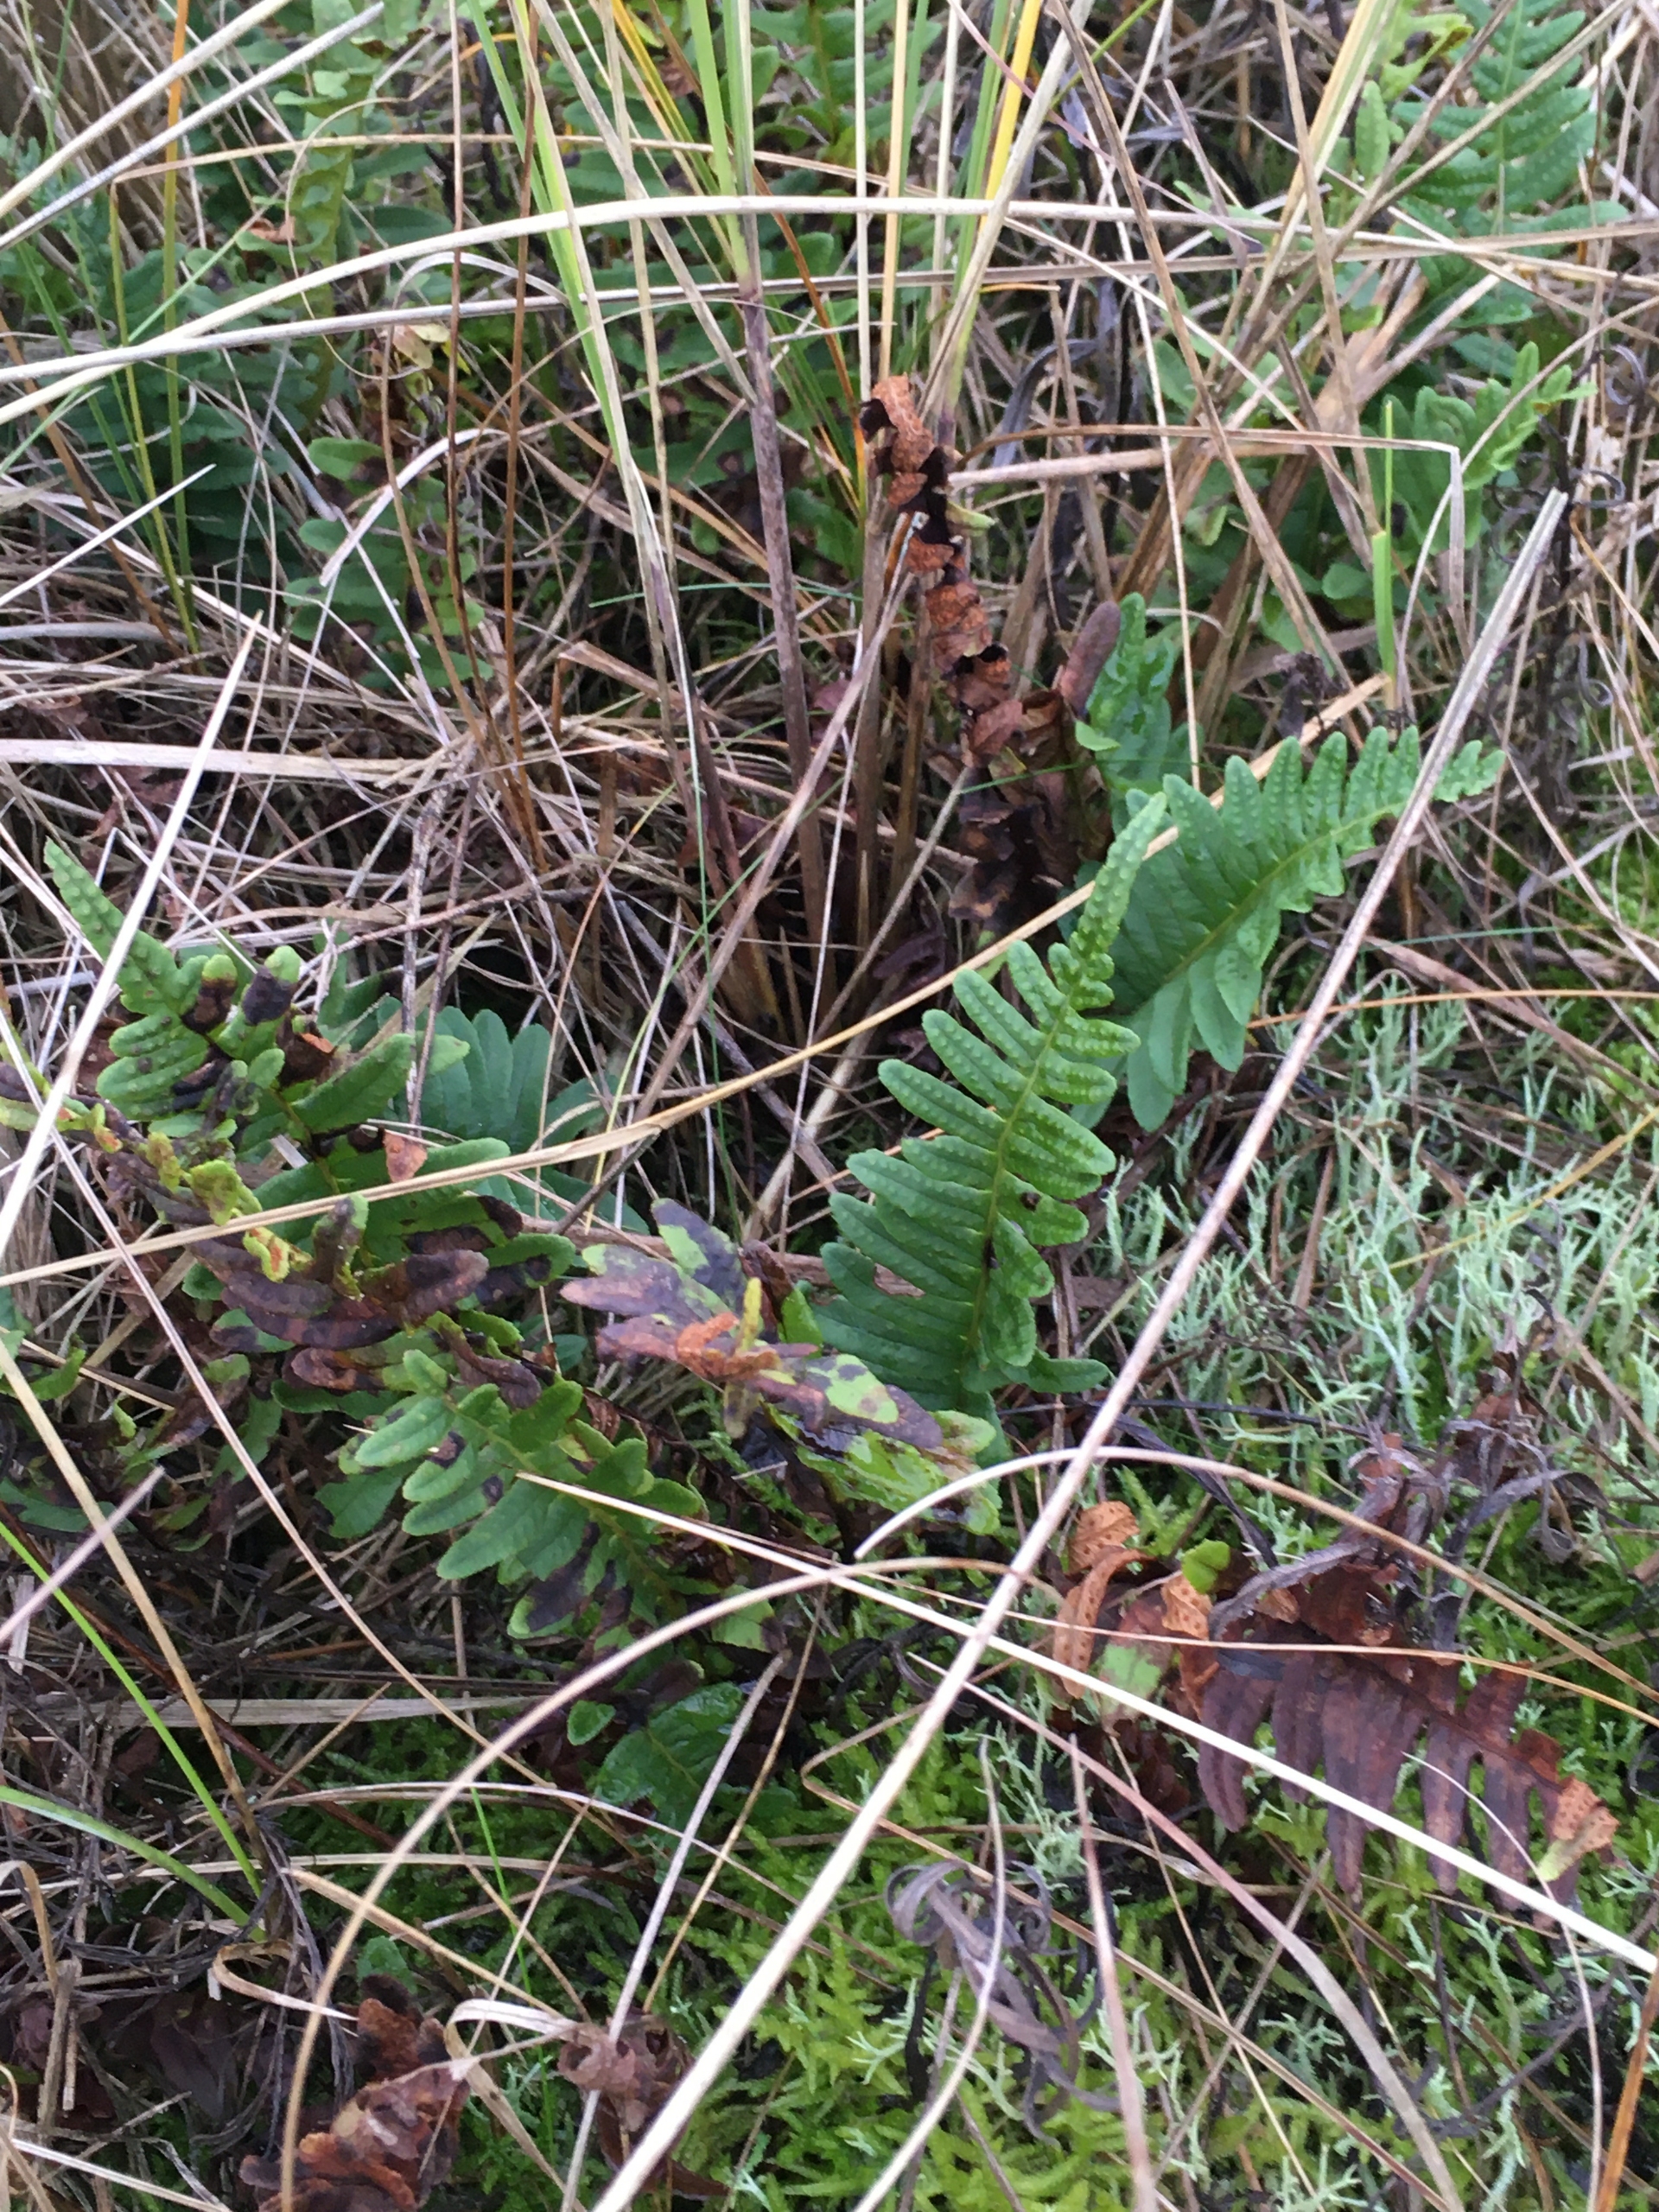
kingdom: Plantae
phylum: Tracheophyta
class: Polypodiopsida
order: Polypodiales
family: Polypodiaceae
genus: Polypodium
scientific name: Polypodium vulgare
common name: Almindelig engelsød
